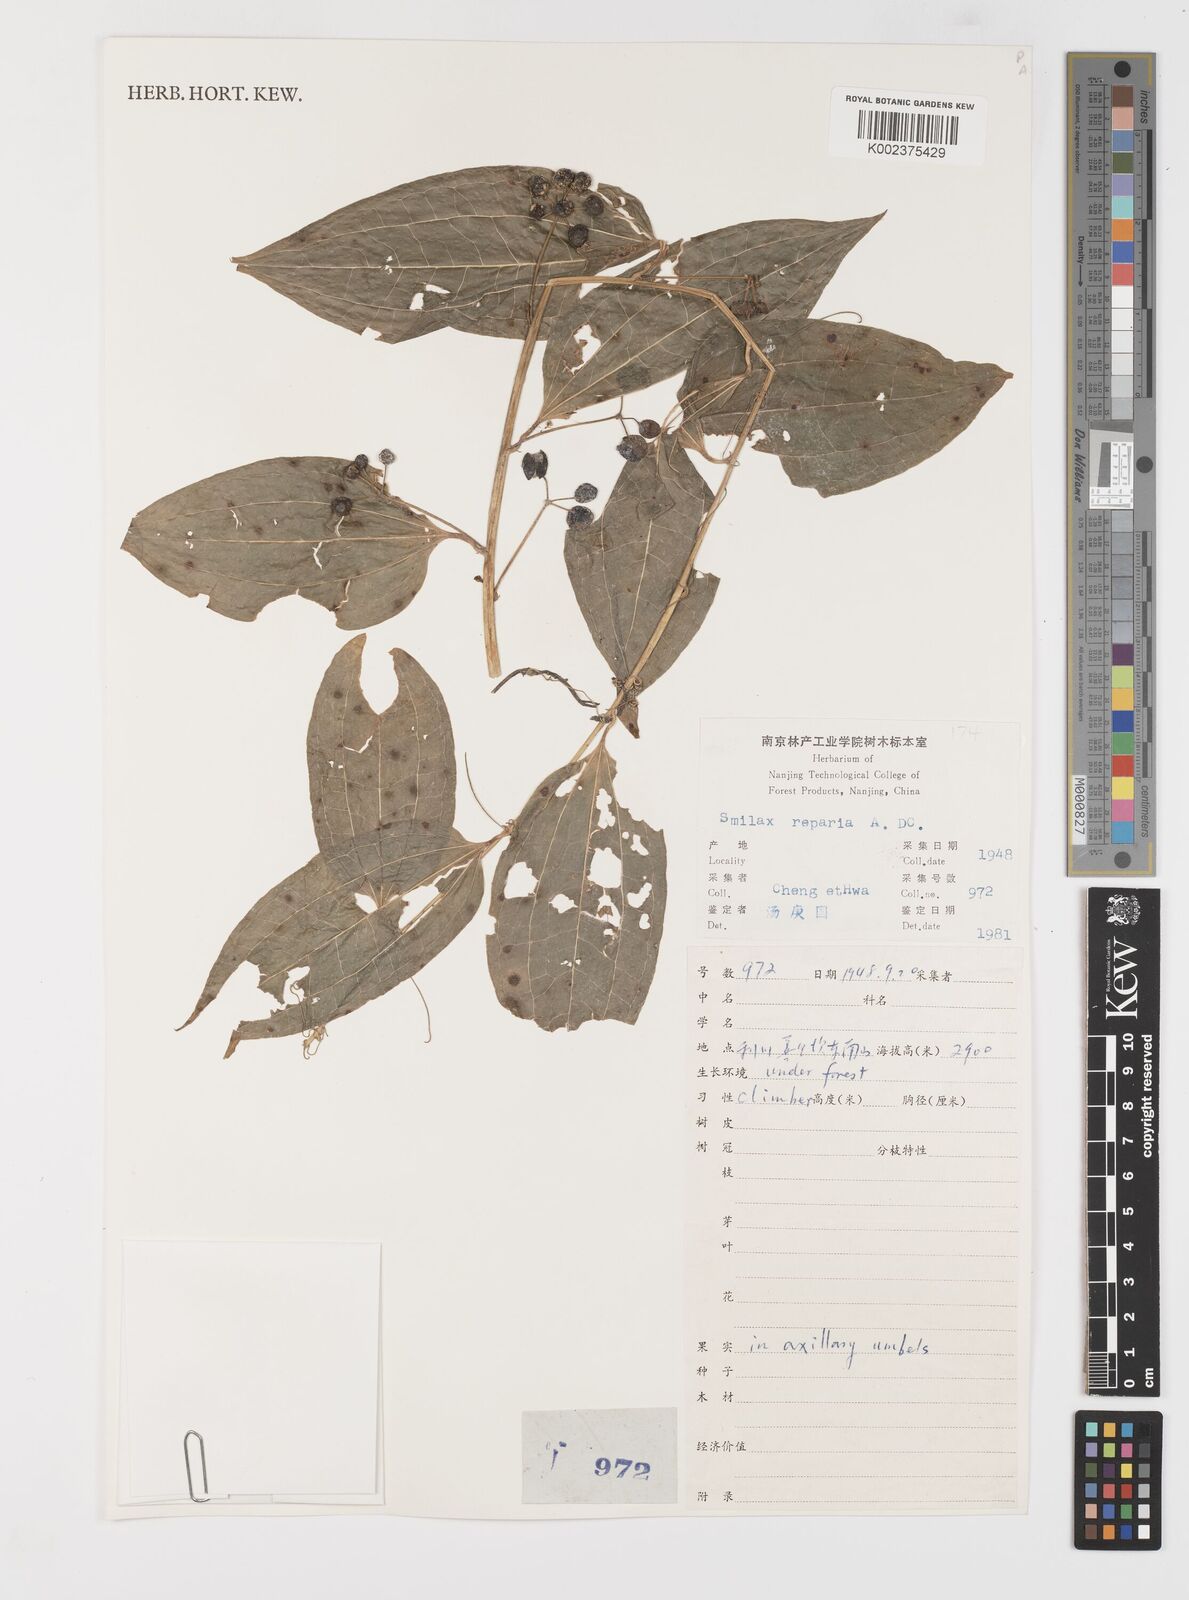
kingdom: Plantae
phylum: Tracheophyta
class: Liliopsida
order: Liliales
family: Smilacaceae
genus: Smilax
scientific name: Smilax riparia
